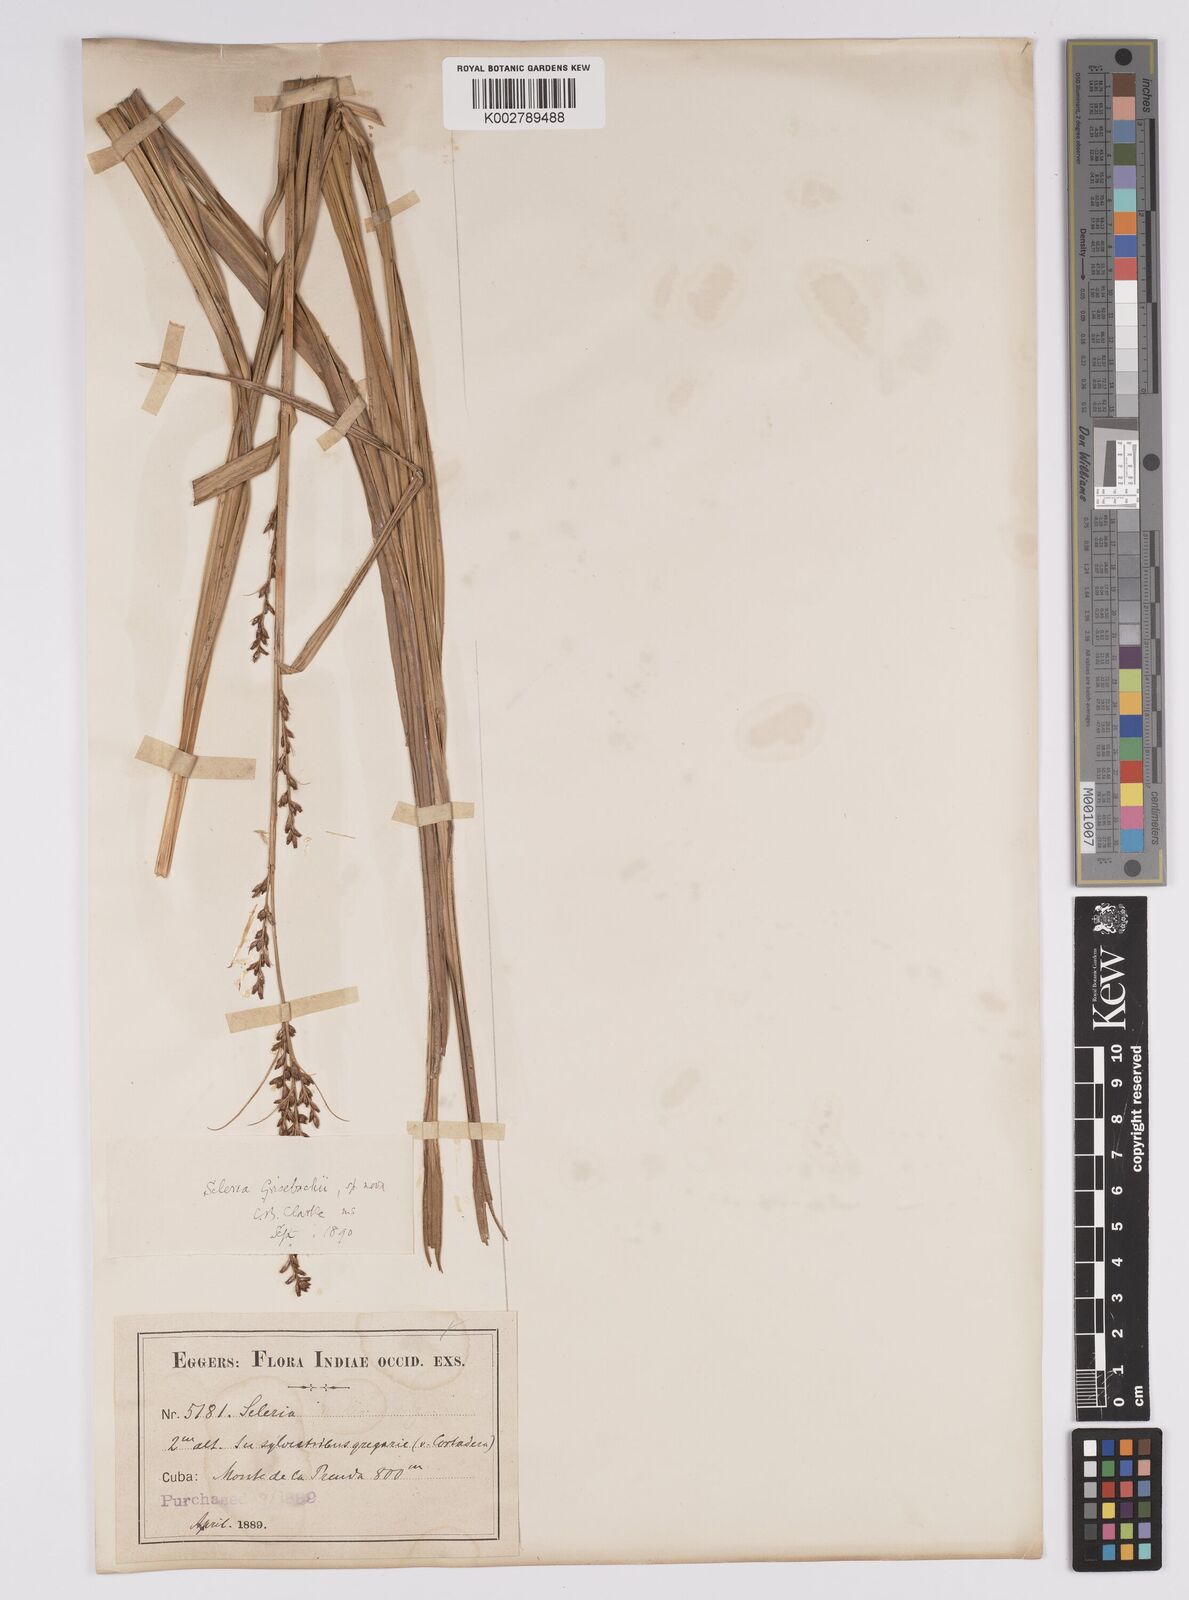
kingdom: Plantae
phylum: Tracheophyta
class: Liliopsida
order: Poales
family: Cyperaceae
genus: Scleria
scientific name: Scleria eggersiana
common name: Eggers' nutrush
